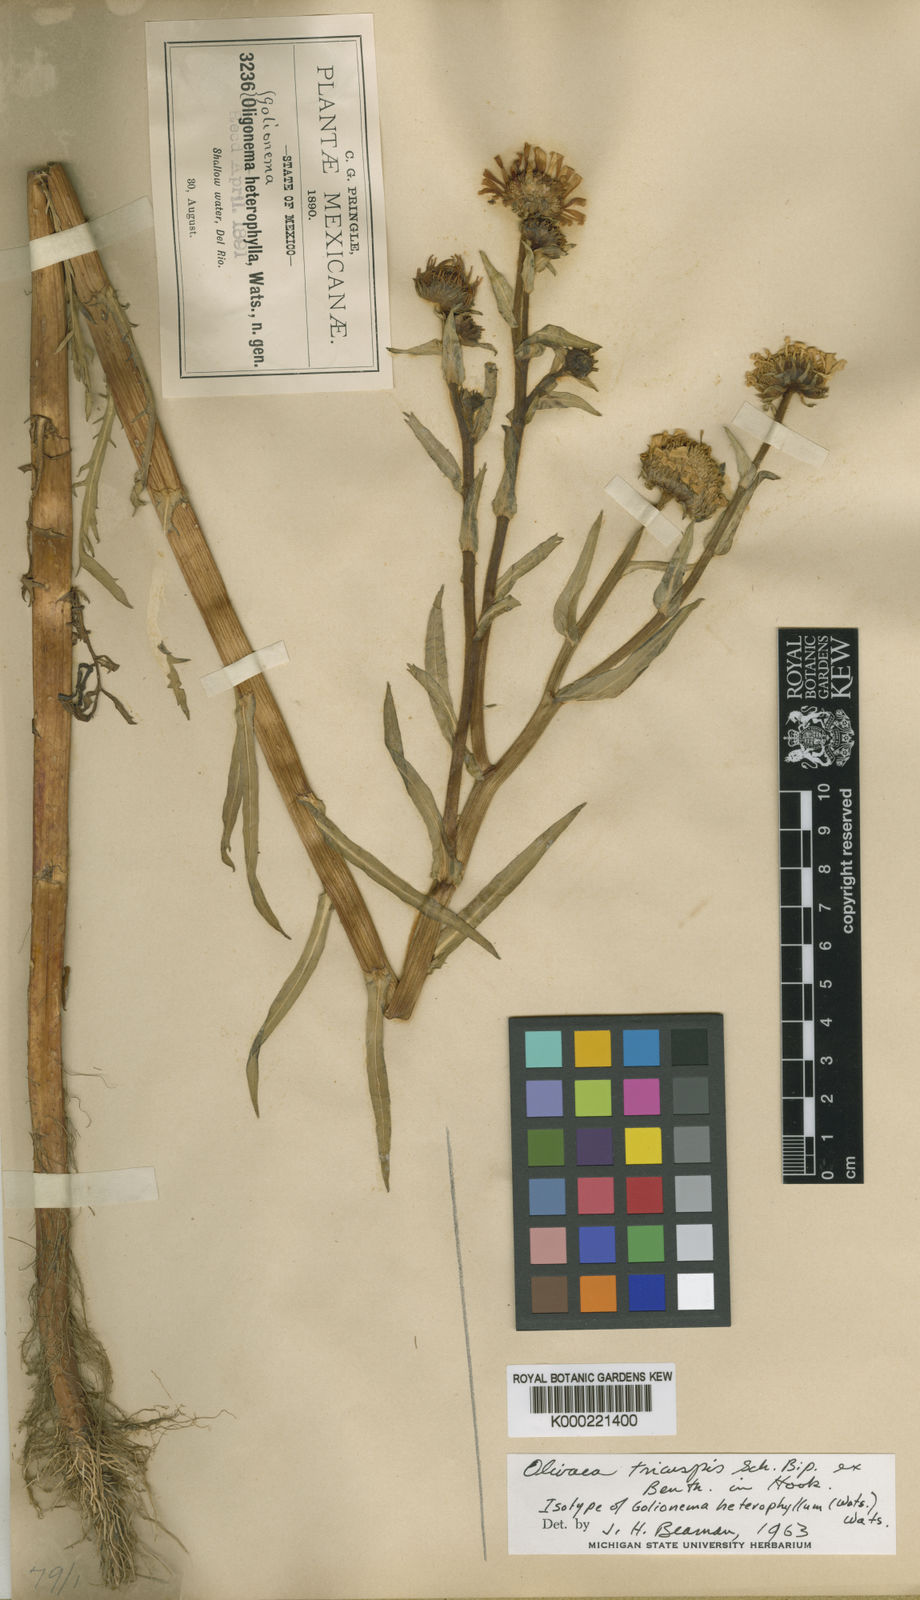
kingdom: Plantae
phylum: Tracheophyta
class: Magnoliopsida
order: Asterales
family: Asteraceae
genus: Grindelia
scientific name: Grindelia tricuspis
